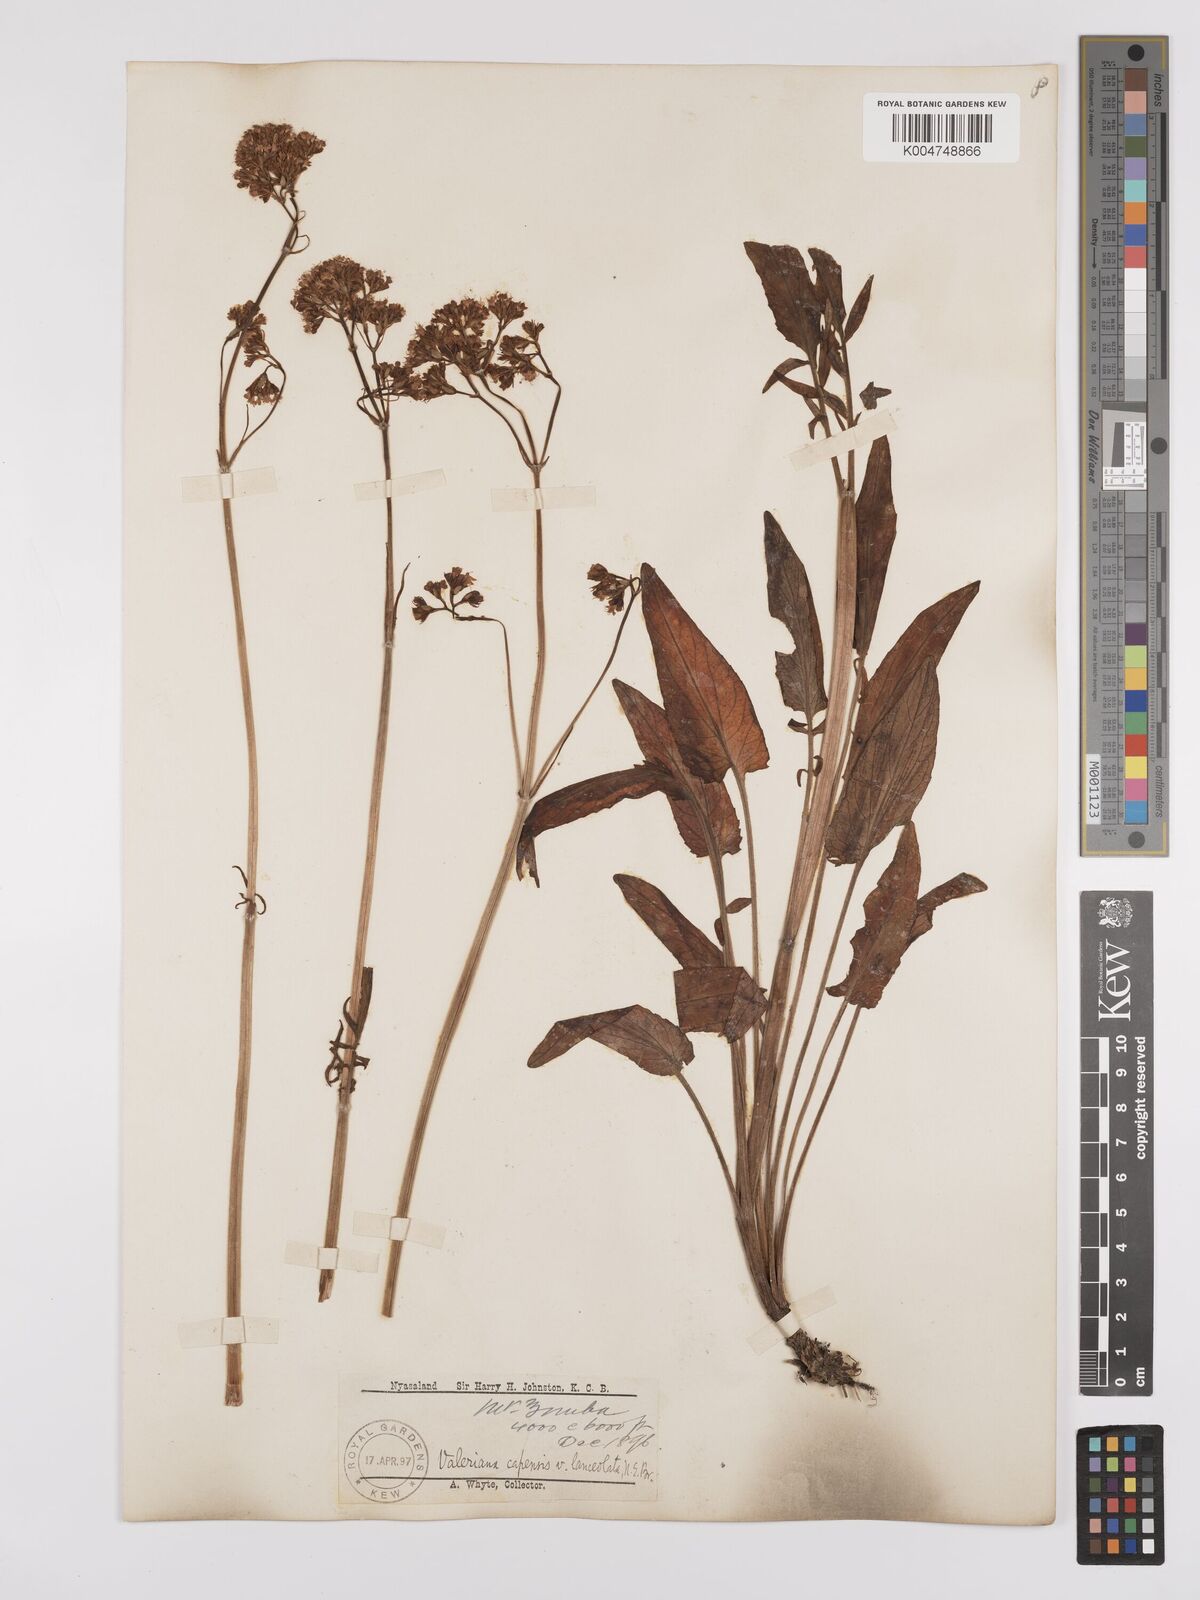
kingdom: Plantae
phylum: Tracheophyta
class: Magnoliopsida
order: Dipsacales
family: Caprifoliaceae
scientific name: Caprifoliaceae
